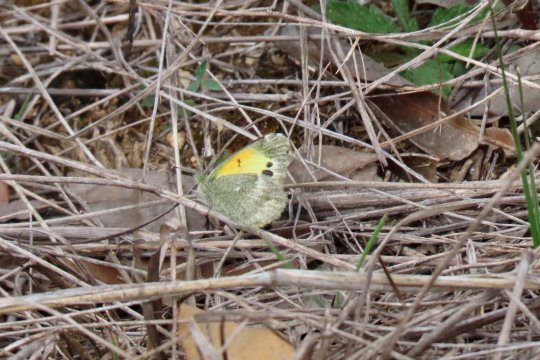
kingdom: Animalia
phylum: Arthropoda
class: Insecta
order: Lepidoptera
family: Pieridae
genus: Nathalis
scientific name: Nathalis iole
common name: Dainty Sulphur
